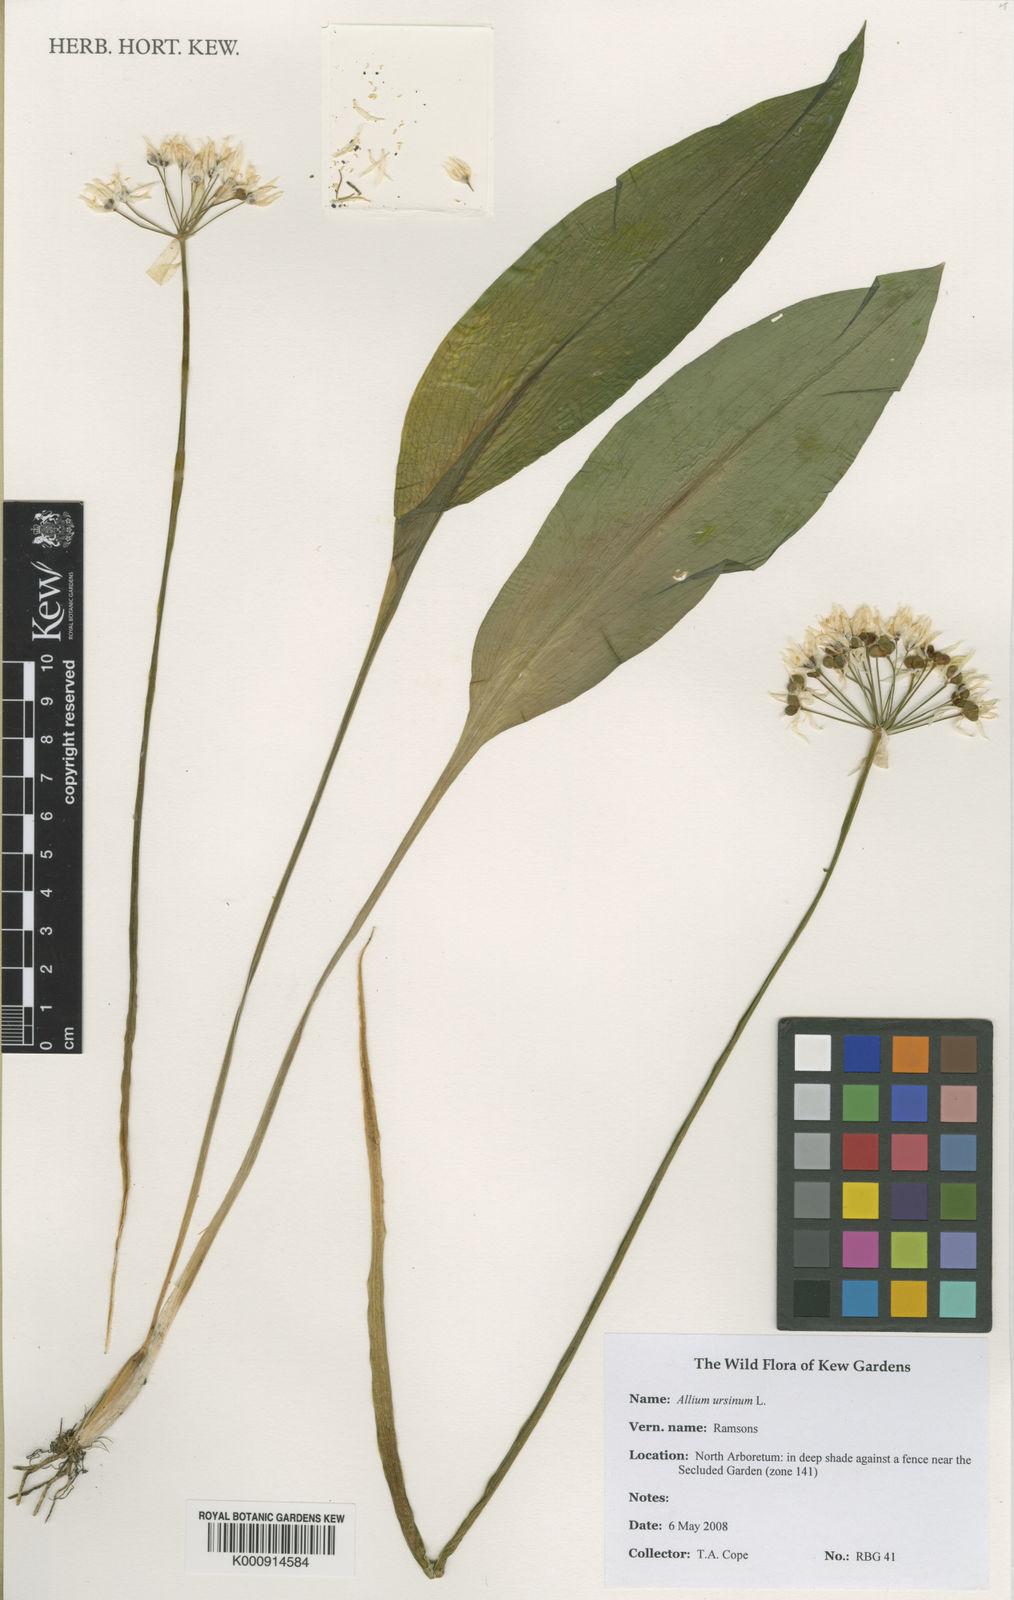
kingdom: Plantae
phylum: Tracheophyta
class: Liliopsida
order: Asparagales
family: Amaryllidaceae
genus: Allium
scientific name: Allium ursinum
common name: Ramsons
